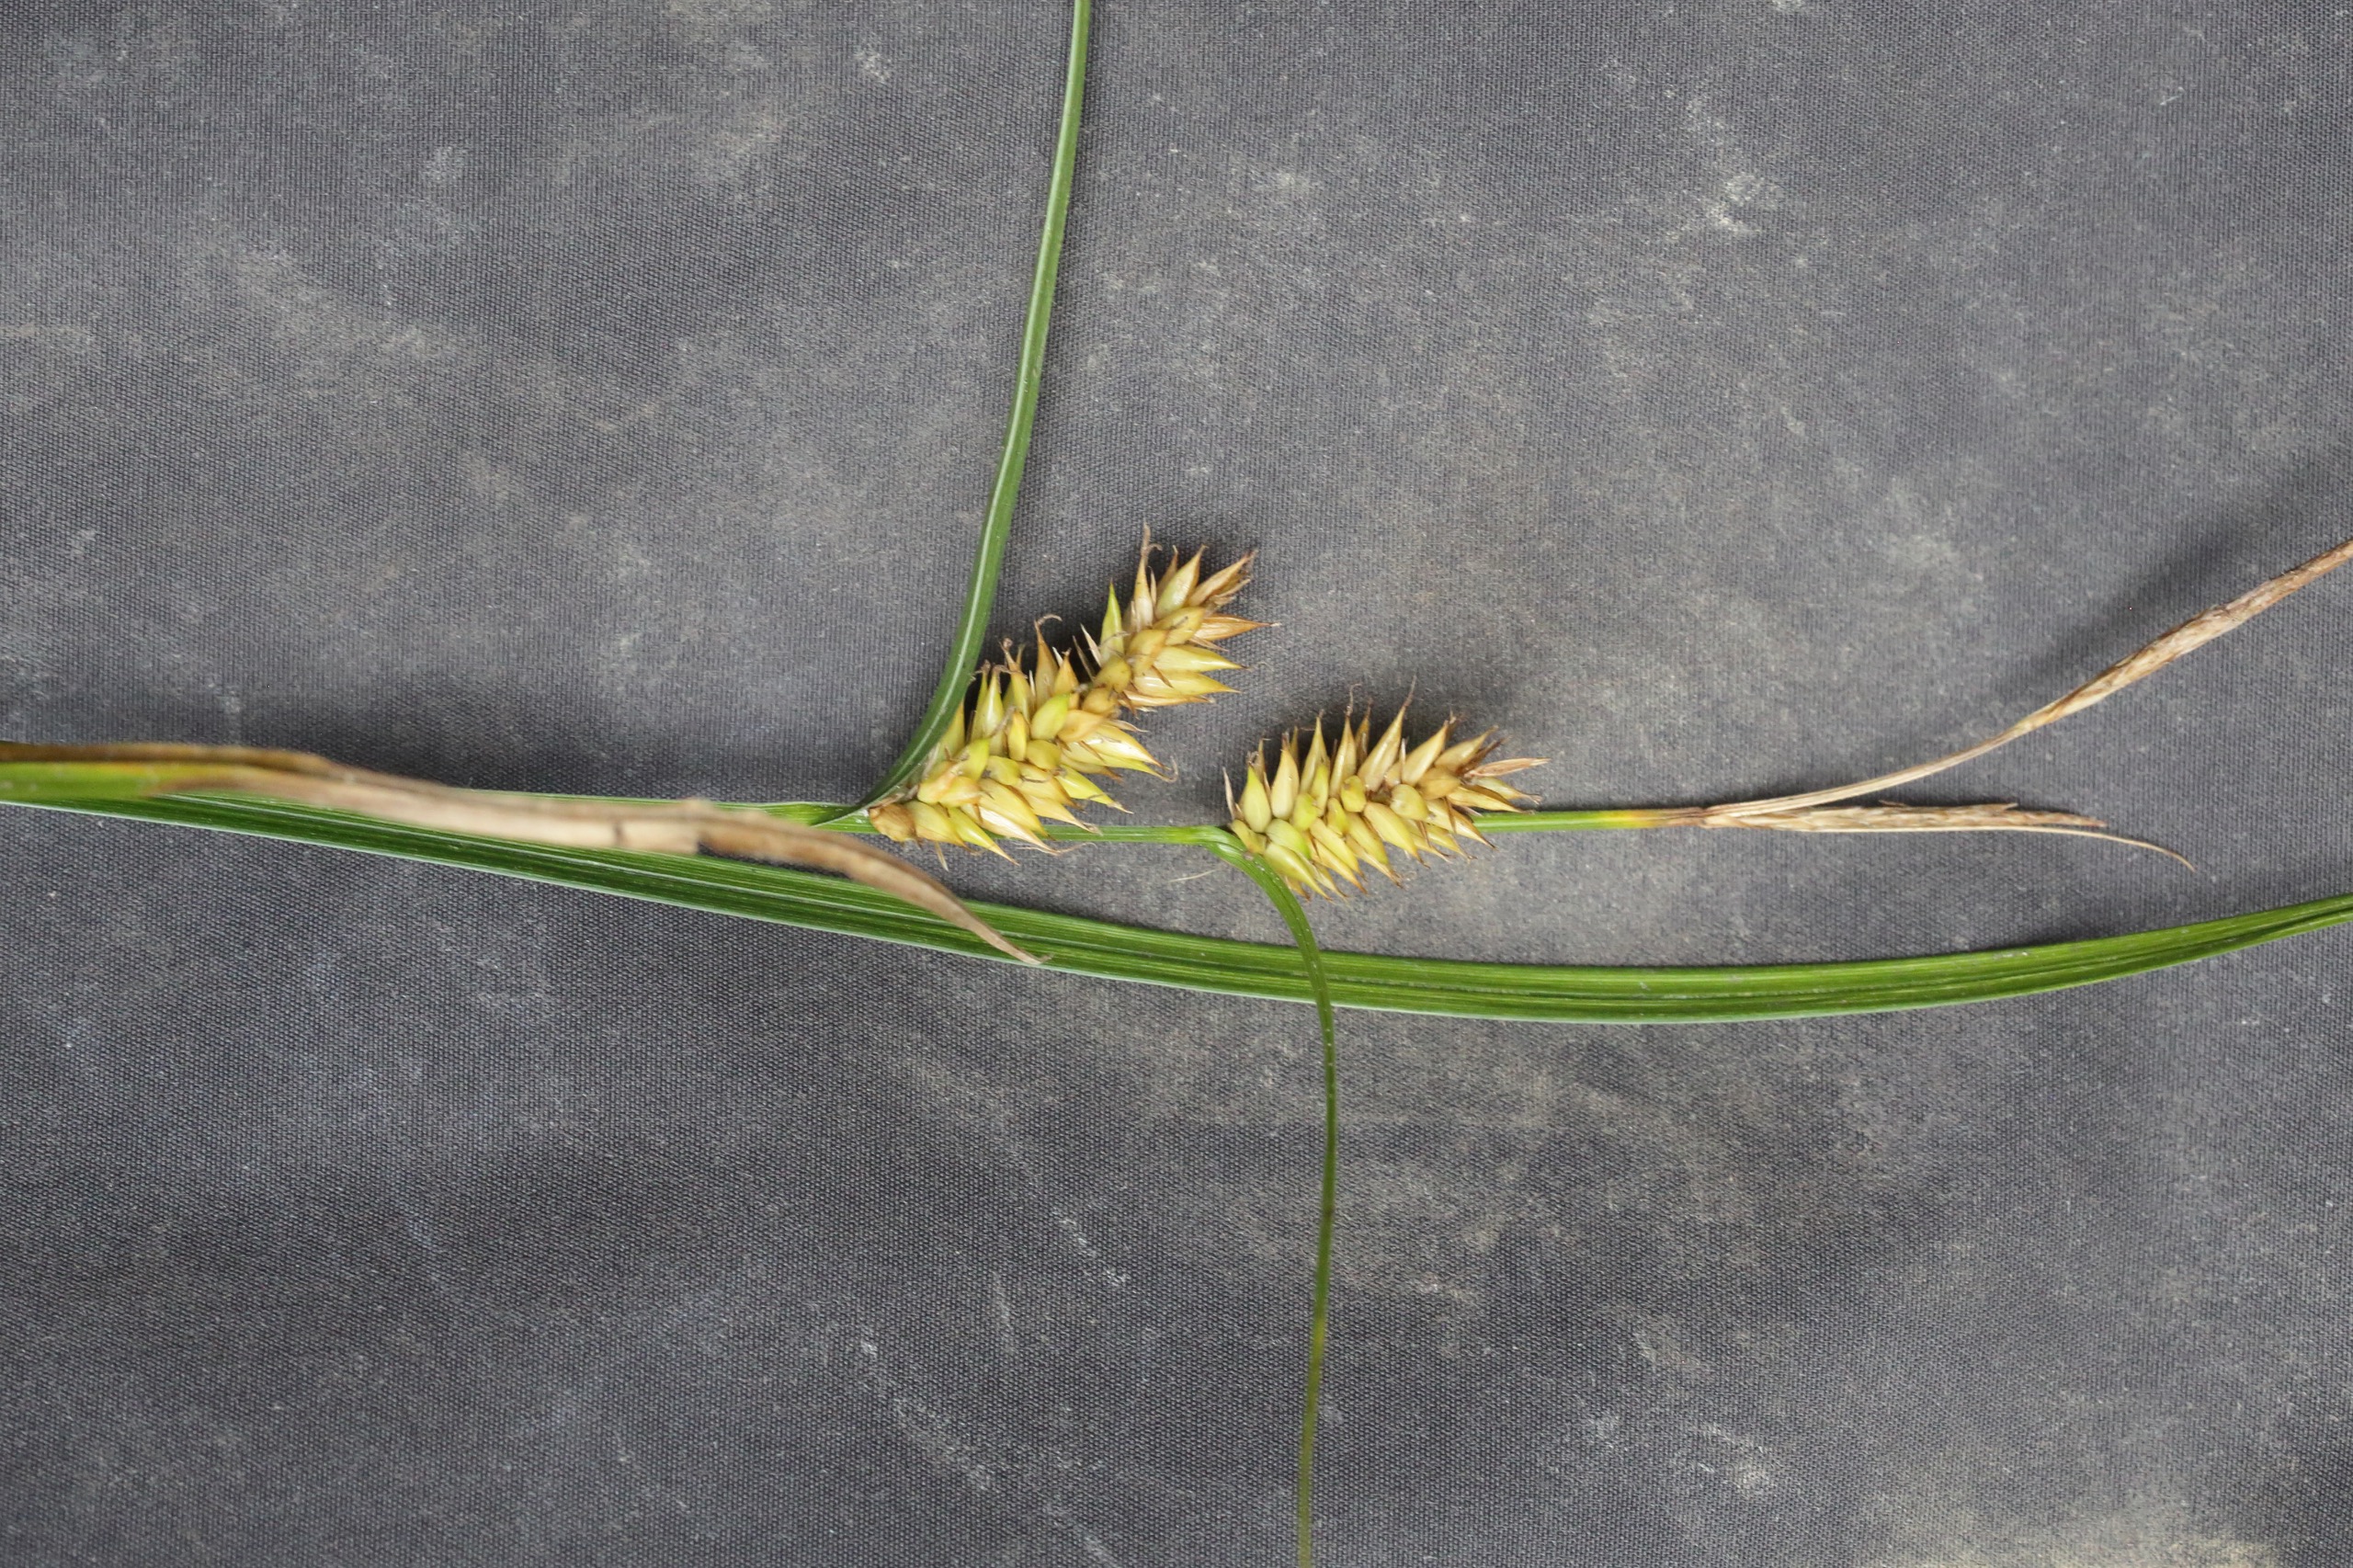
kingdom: Plantae
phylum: Tracheophyta
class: Liliopsida
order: Poales
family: Cyperaceae
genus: Carex
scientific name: Carex vesicaria
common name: Blære-star
